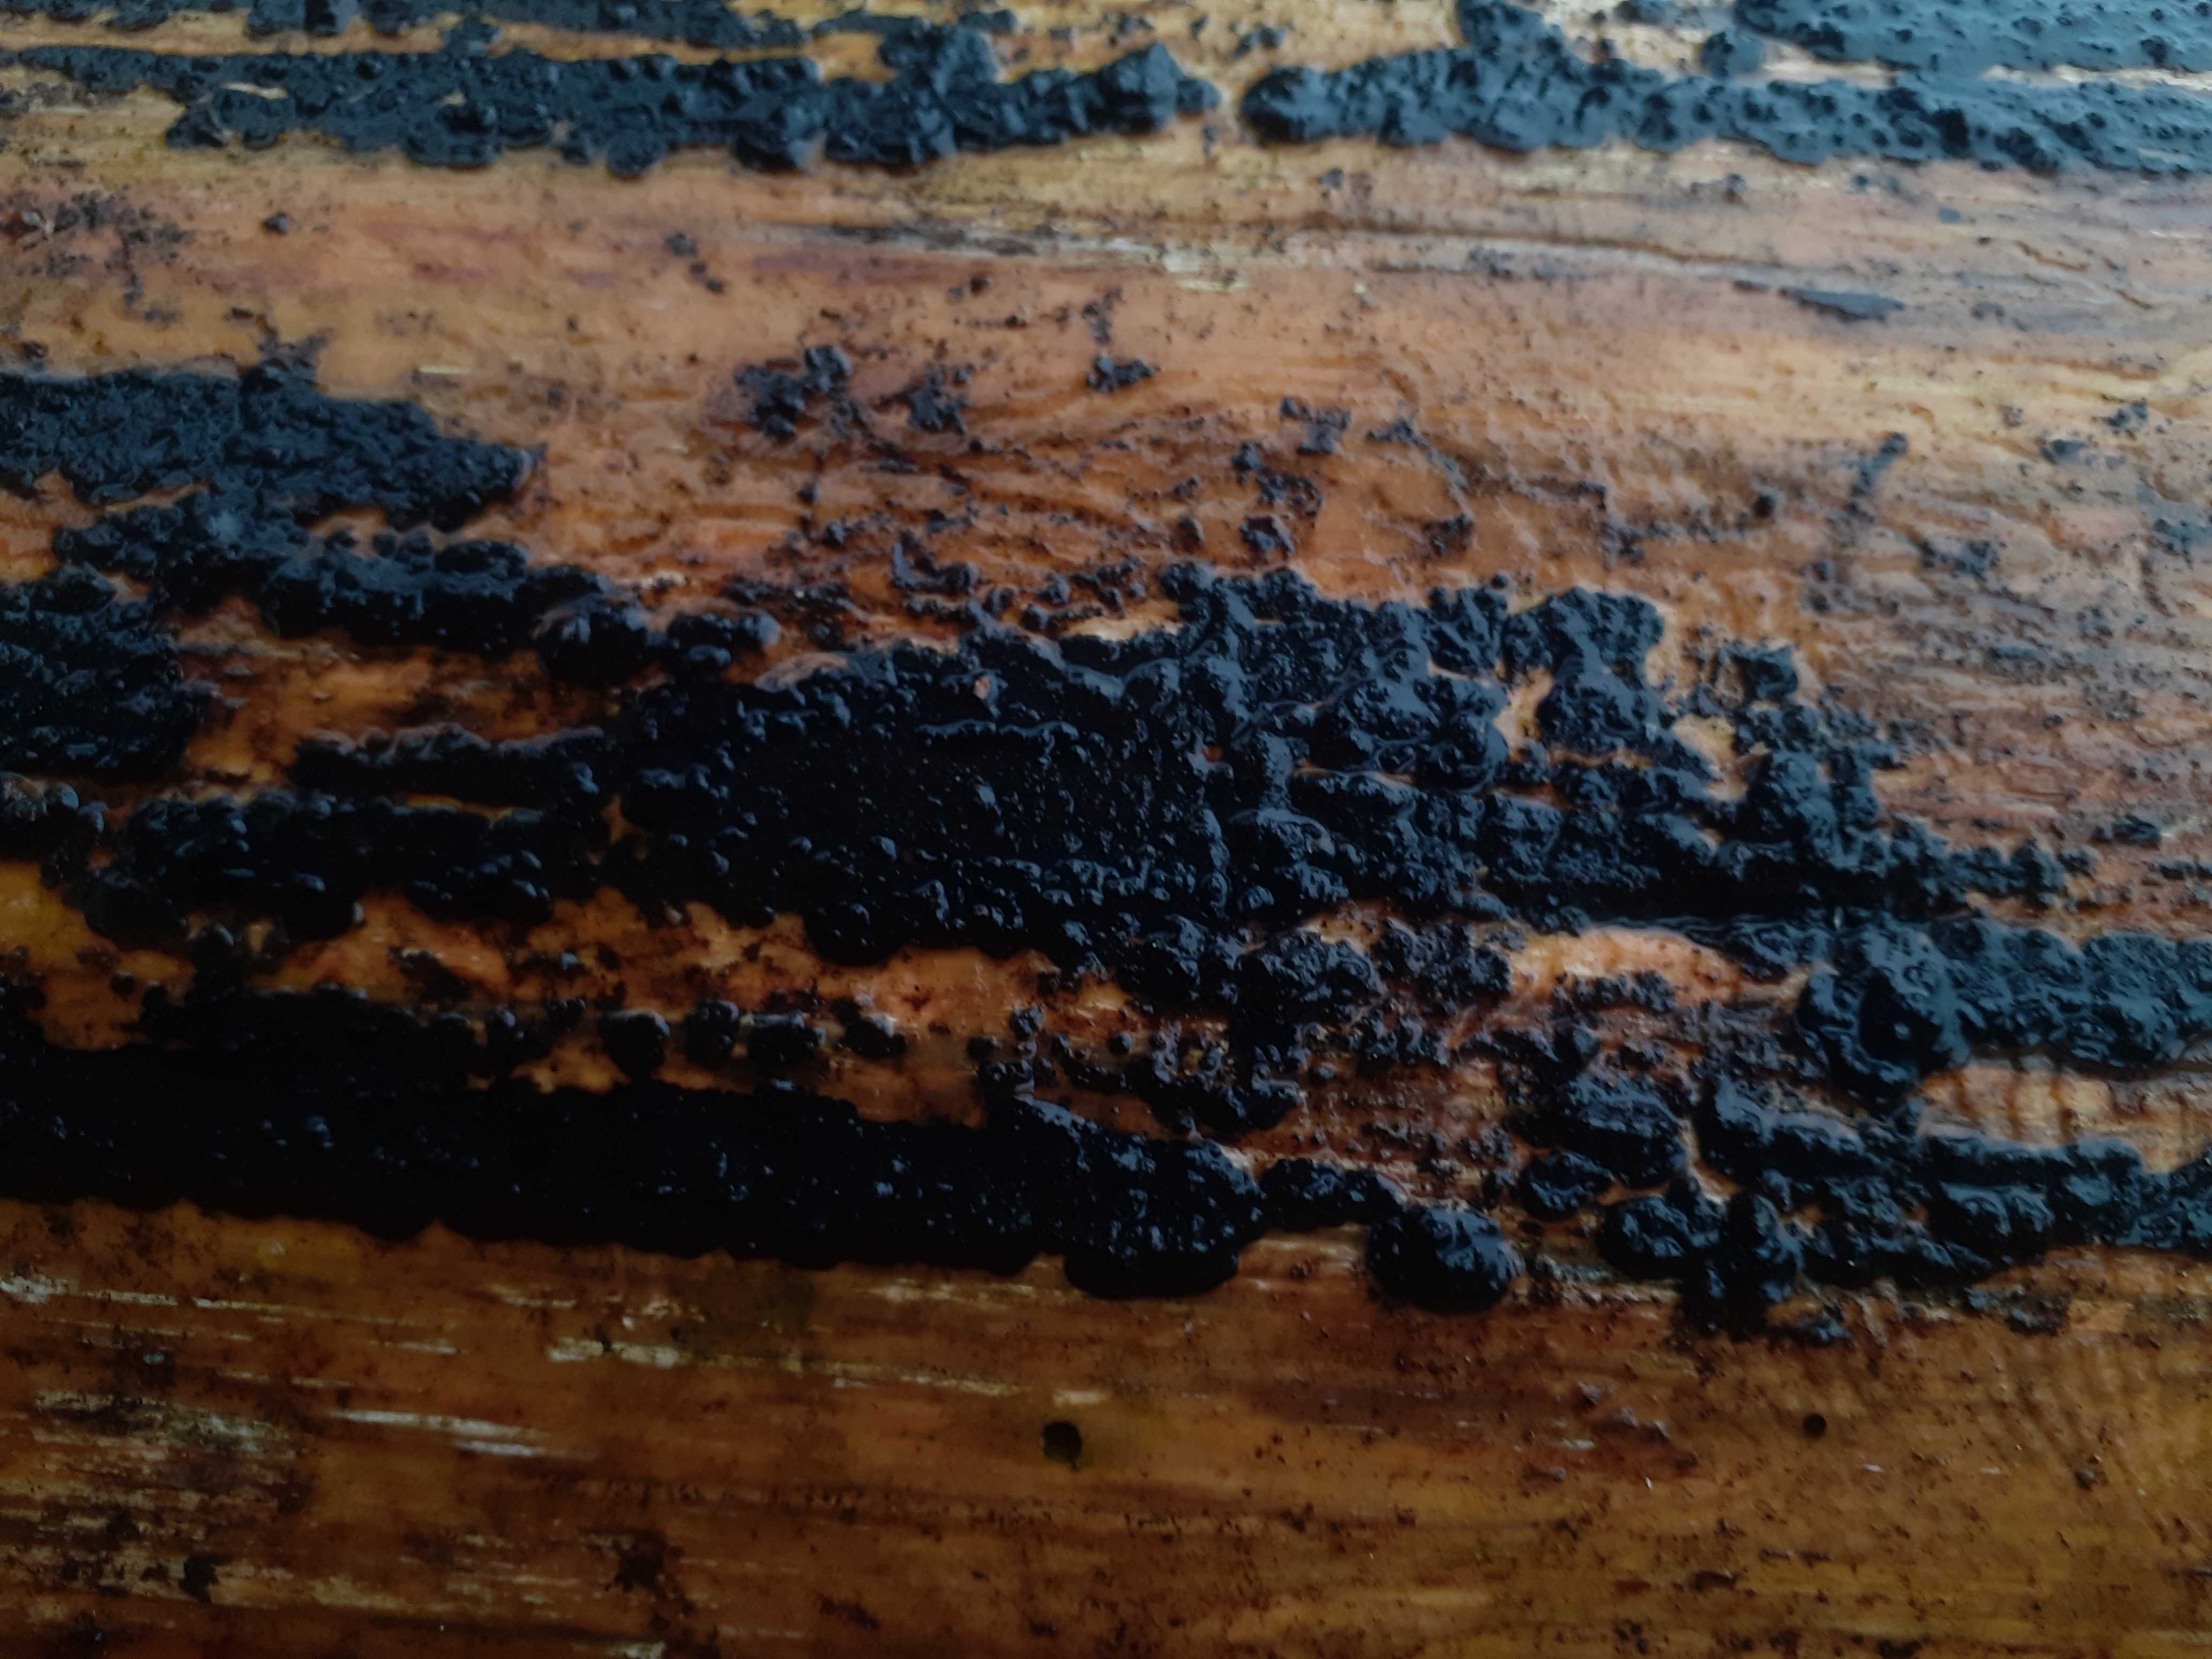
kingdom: Fungi
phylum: Basidiomycota
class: Agaricomycetes
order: Auriculariales
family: Auriculariaceae
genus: Exidia
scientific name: Exidia pithya
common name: gran-bævretop
